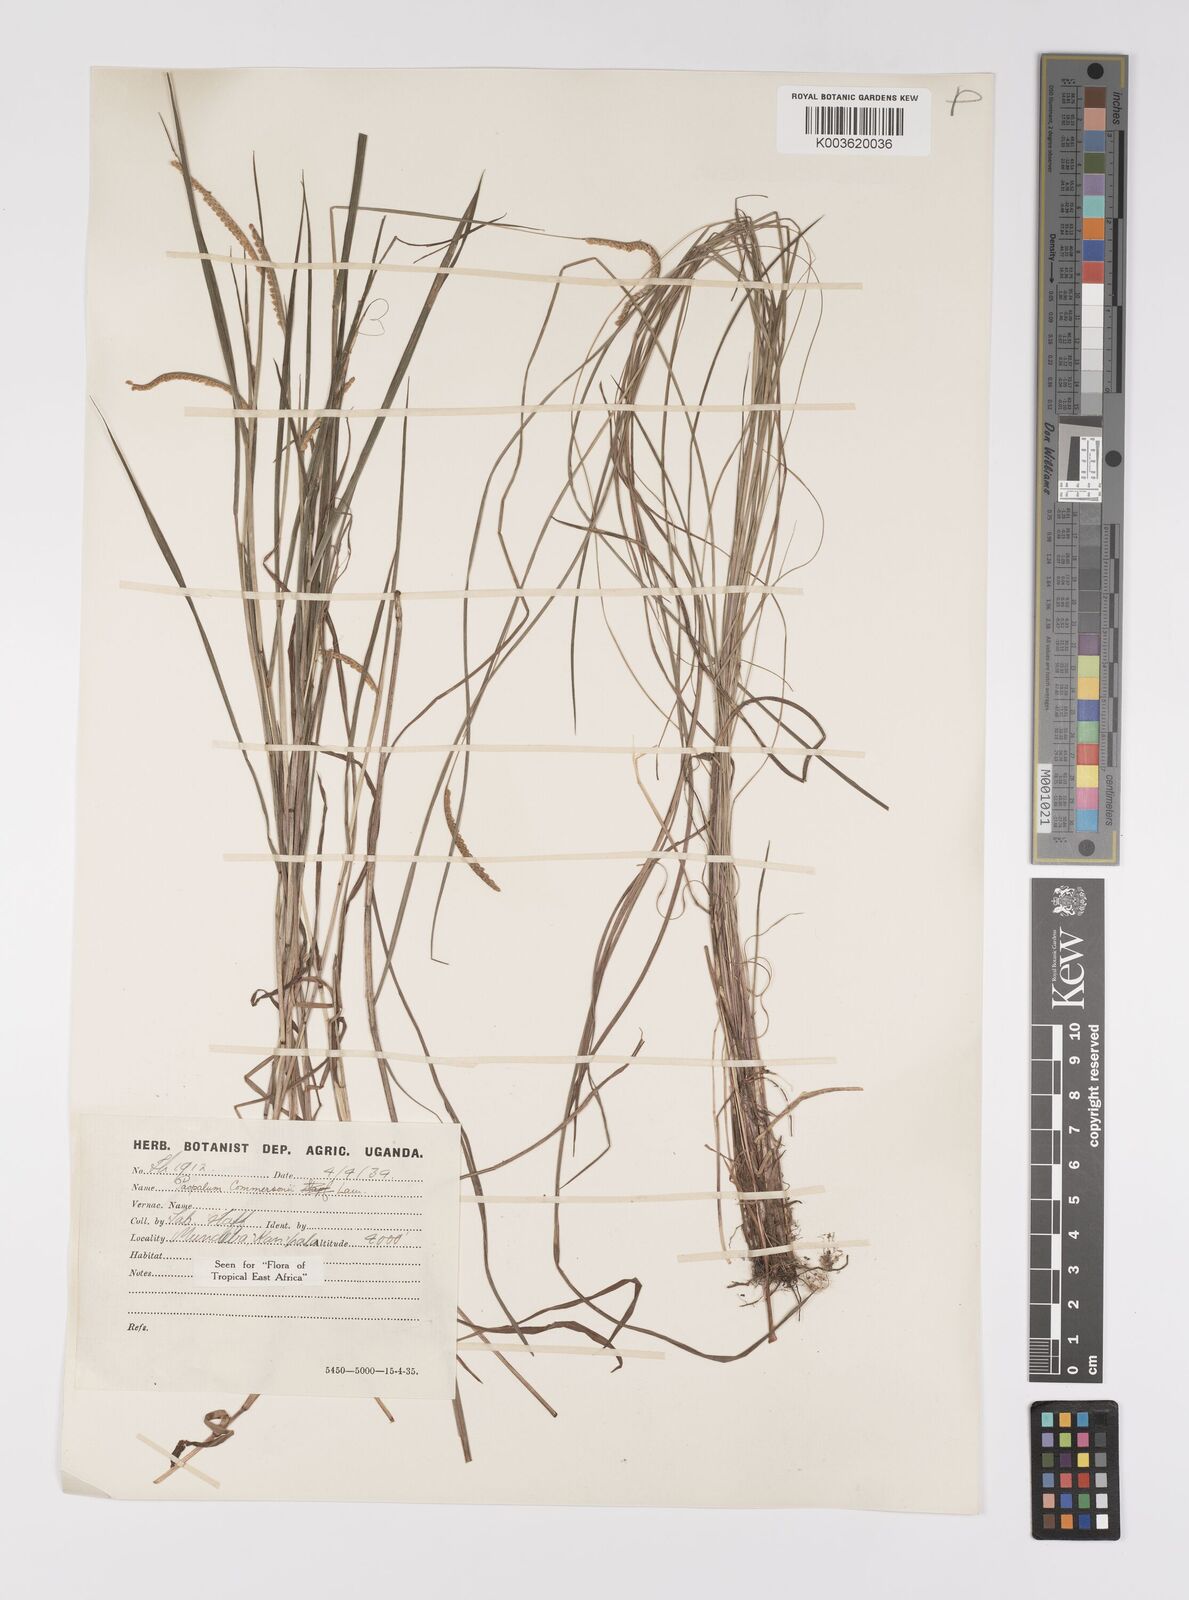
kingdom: Plantae
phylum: Tracheophyta
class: Liliopsida
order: Poales
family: Poaceae
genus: Paspalum
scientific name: Paspalum scrobiculatum
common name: Kodo millet
